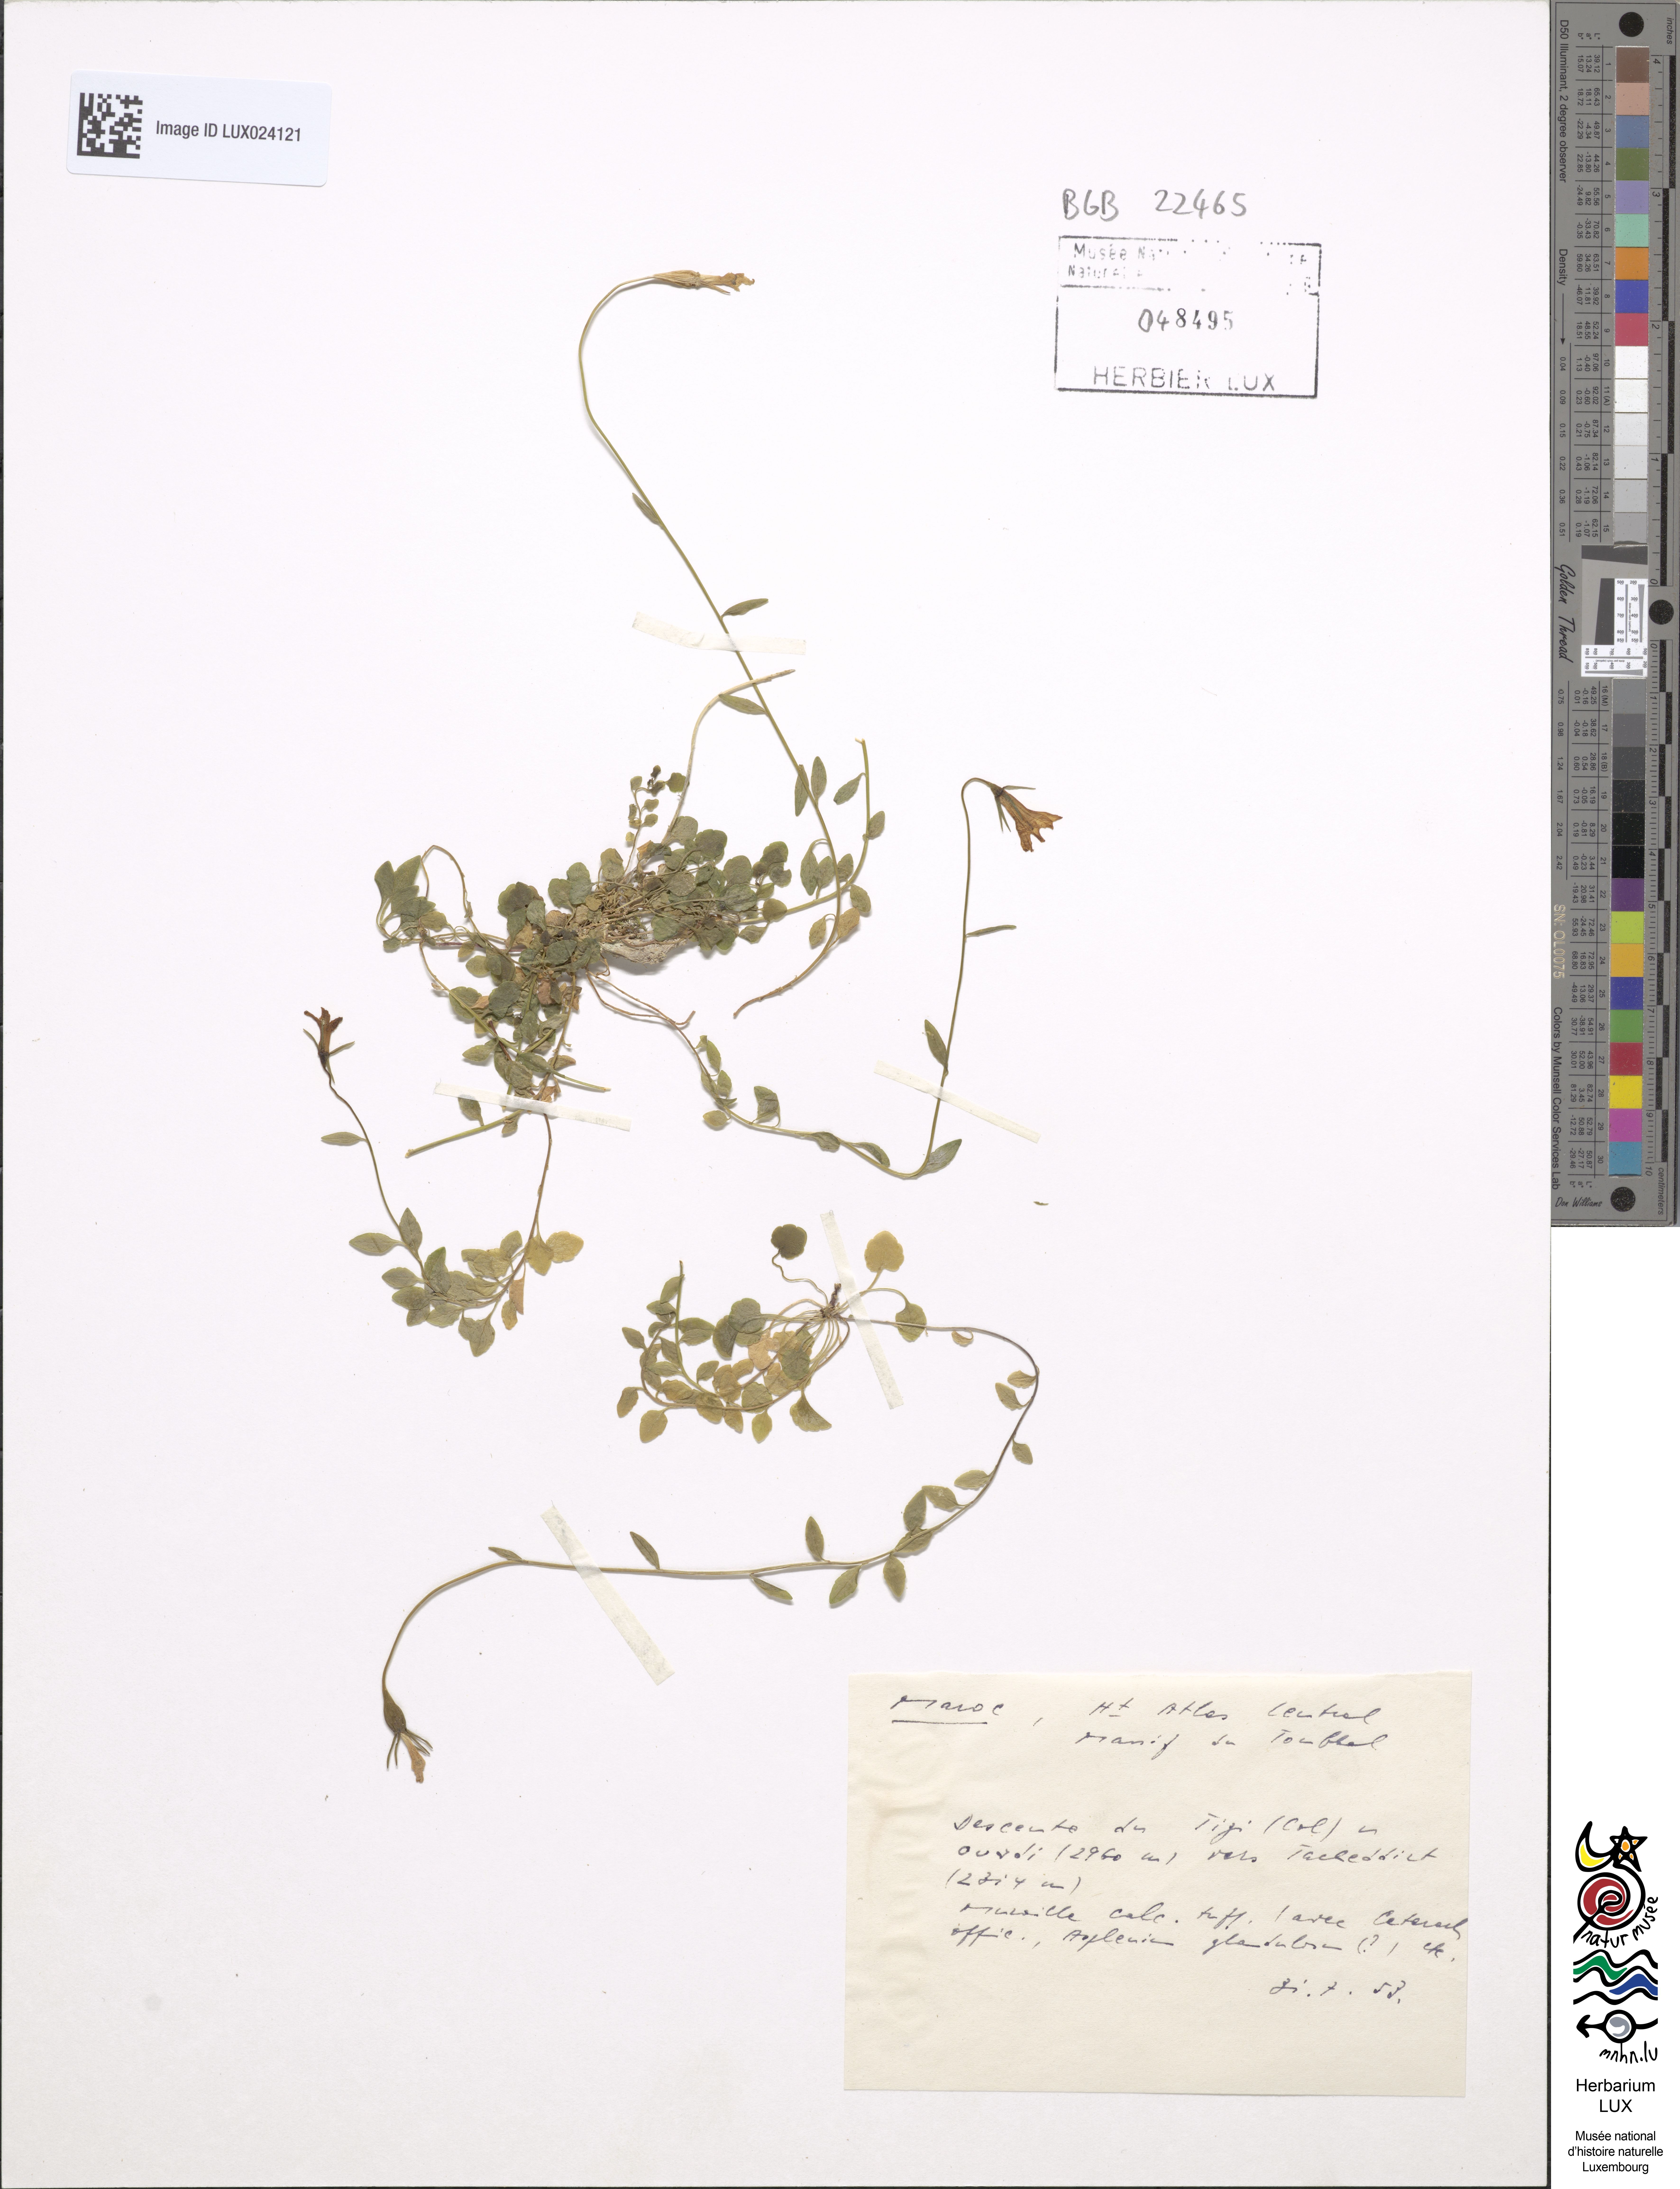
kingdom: Plantae
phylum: Tracheophyta
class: Magnoliopsida
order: Asterales
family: Campanulaceae
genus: Campanula
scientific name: Campanula
